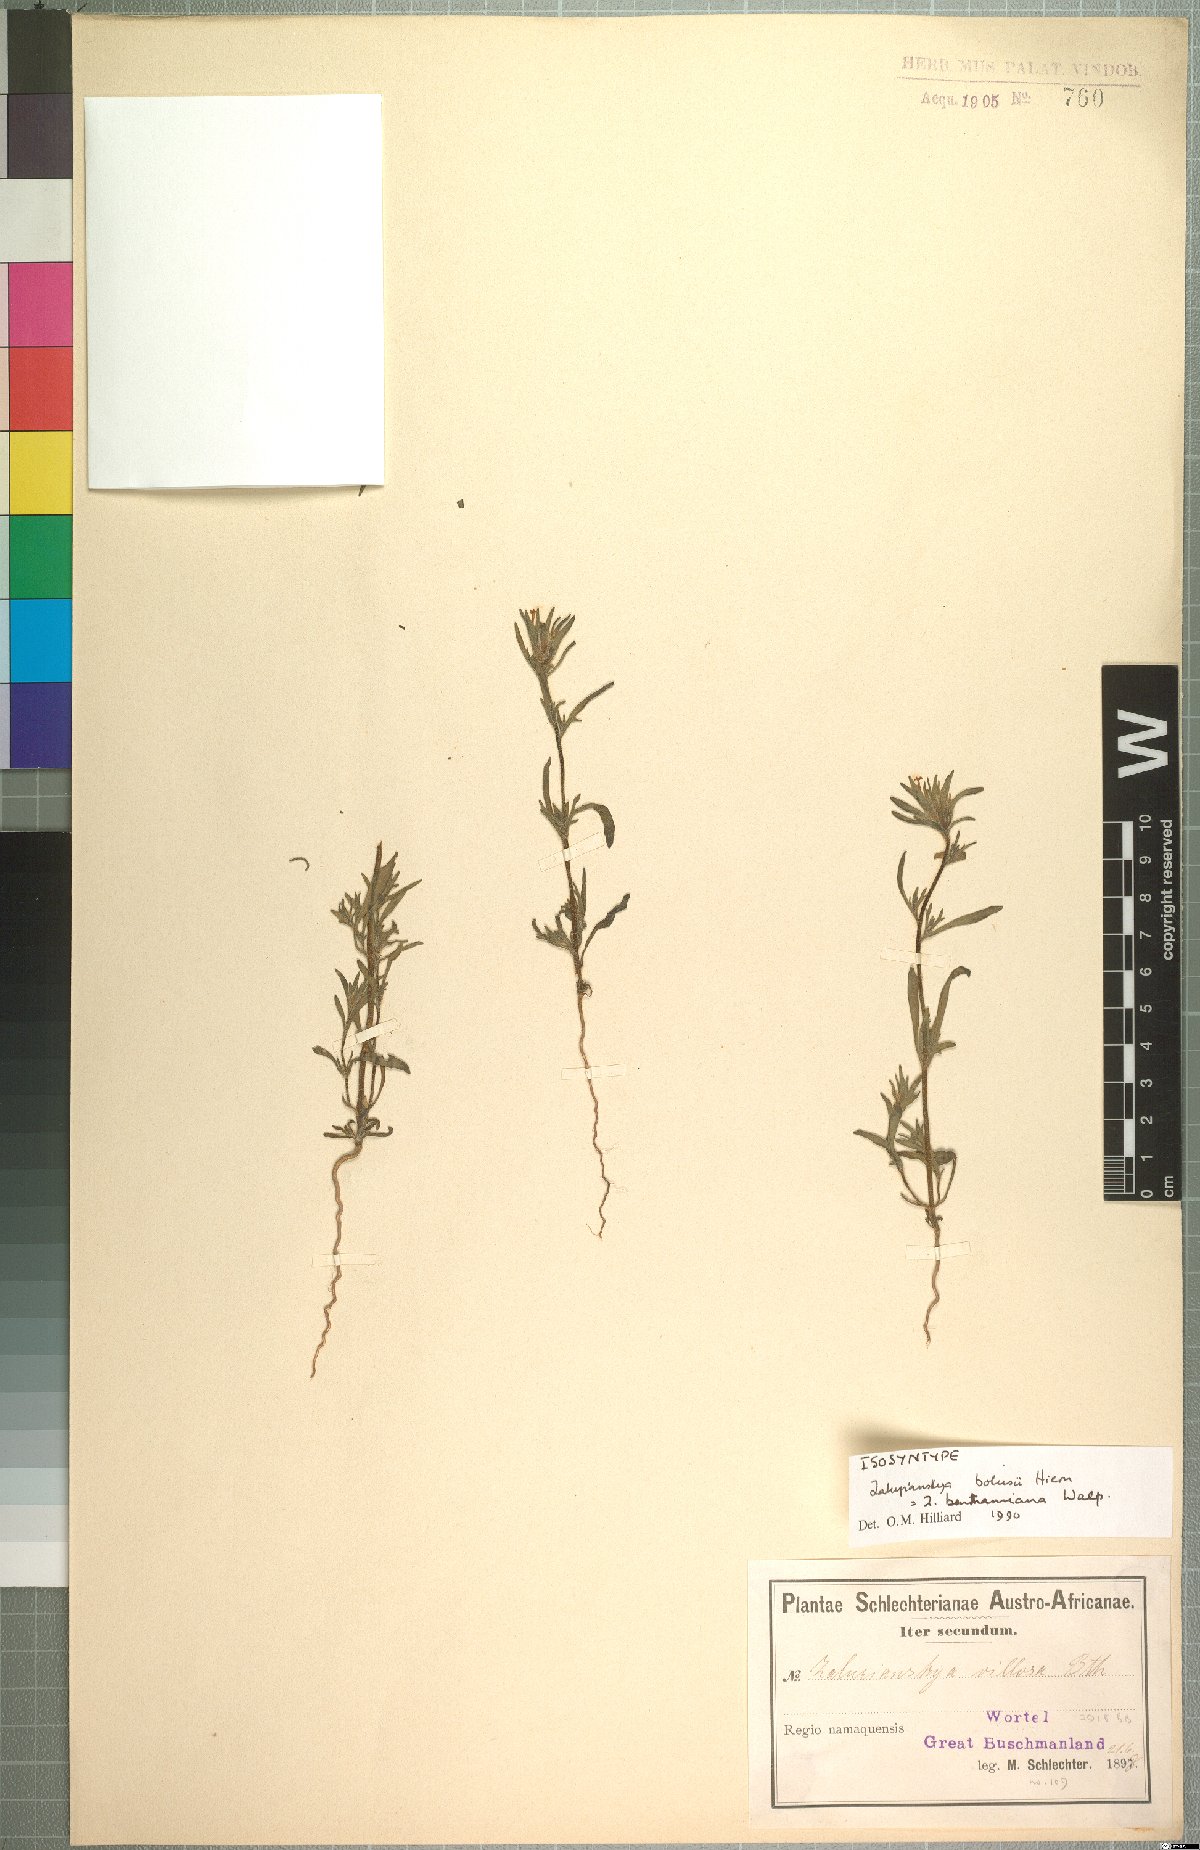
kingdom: Plantae
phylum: Tracheophyta
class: Magnoliopsida
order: Lamiales
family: Scrophulariaceae
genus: Zaluzianskya
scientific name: Zaluzianskya benthamiana
